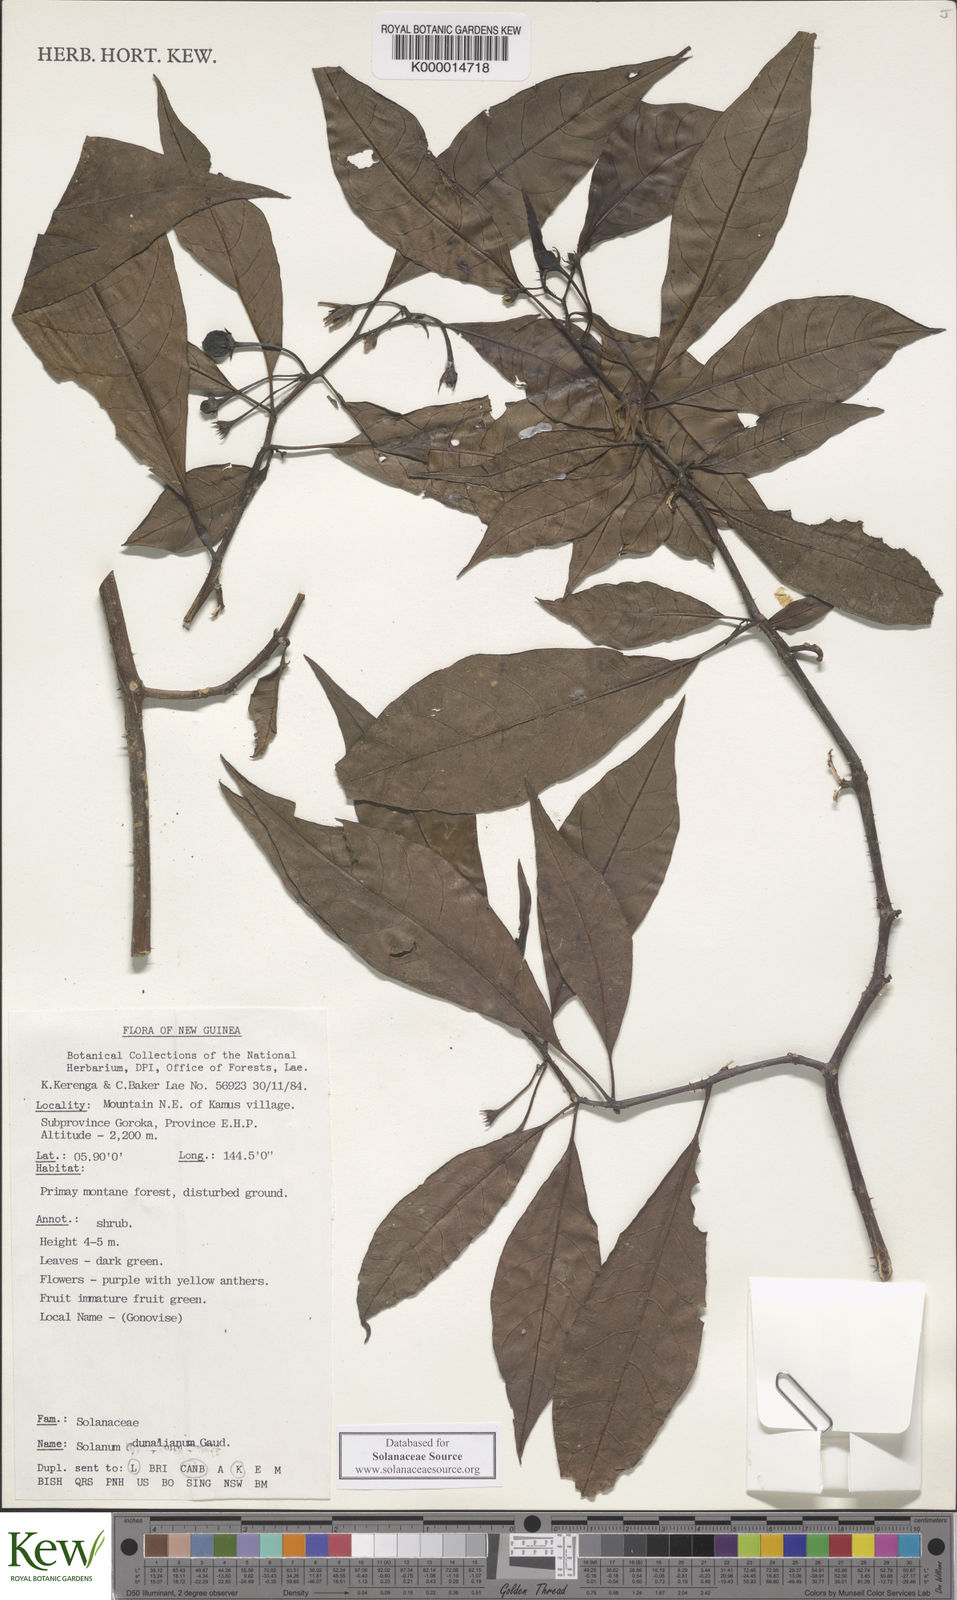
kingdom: Plantae
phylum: Tracheophyta
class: Magnoliopsida
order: Solanales
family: Solanaceae
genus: Solanum
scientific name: Solanum dunalianum
